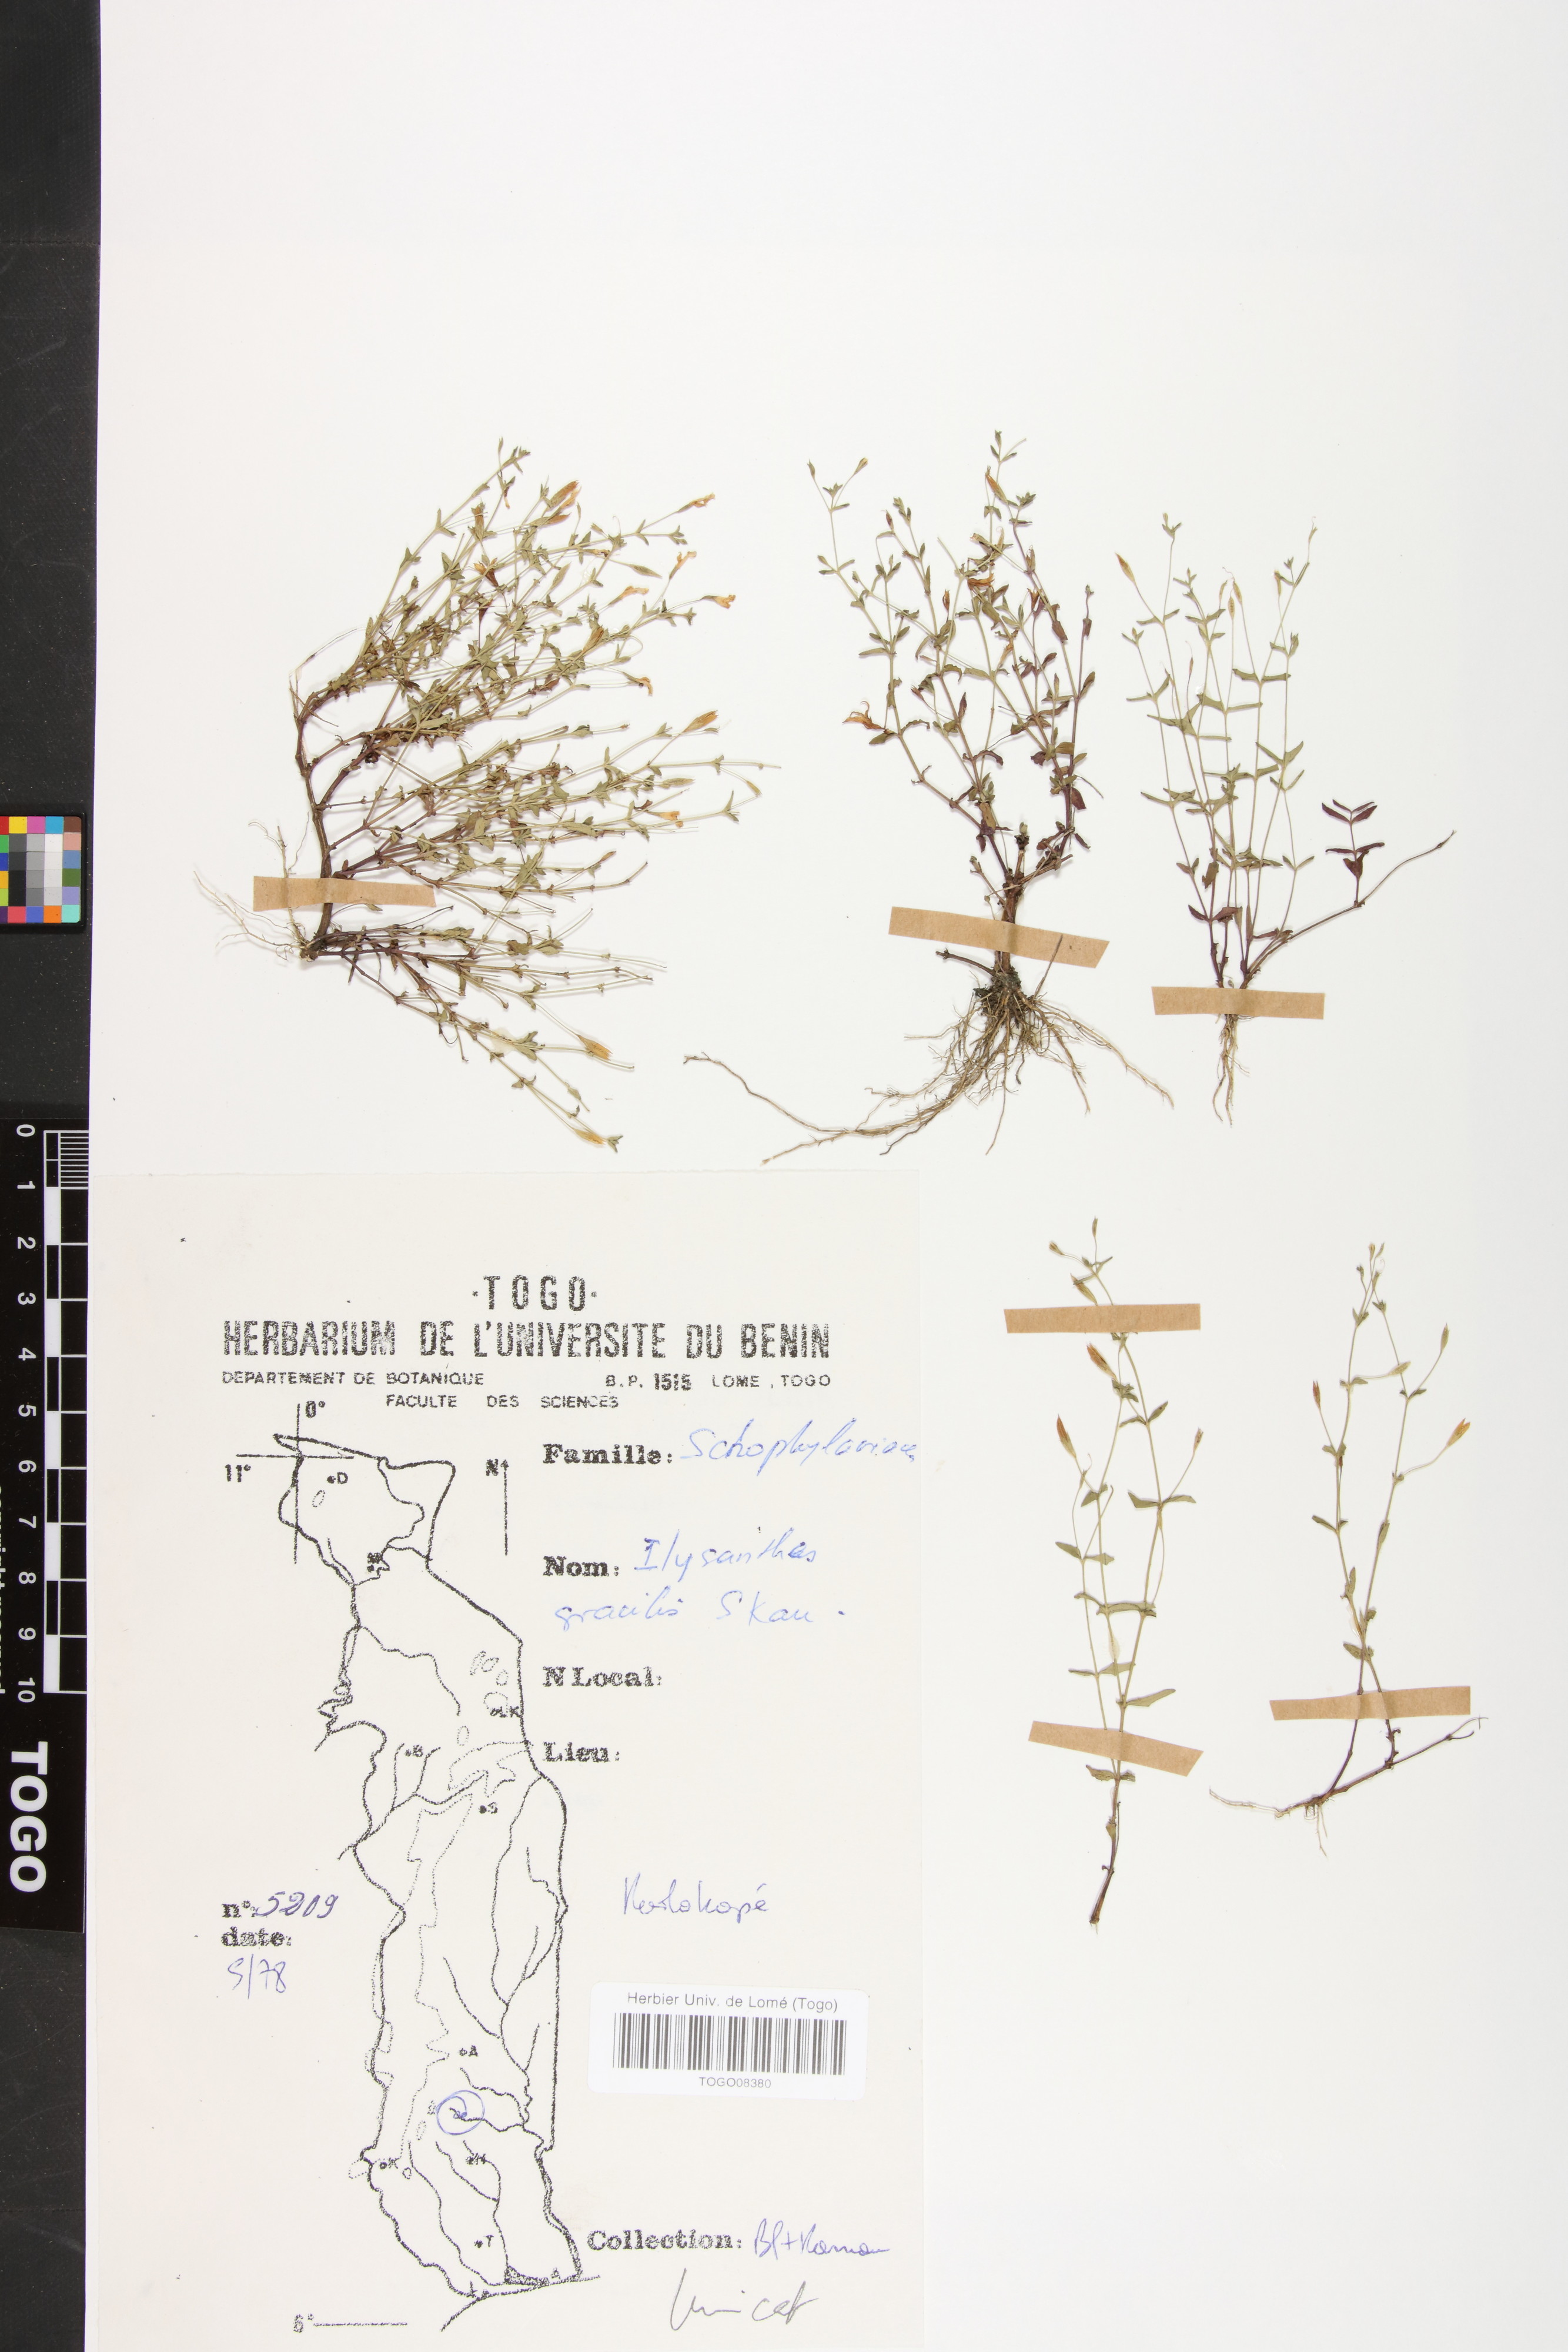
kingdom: Plantae
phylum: Tracheophyta
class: Magnoliopsida
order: Lamiales
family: Linderniaceae
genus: Linderniella
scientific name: Linderniella gracilis
